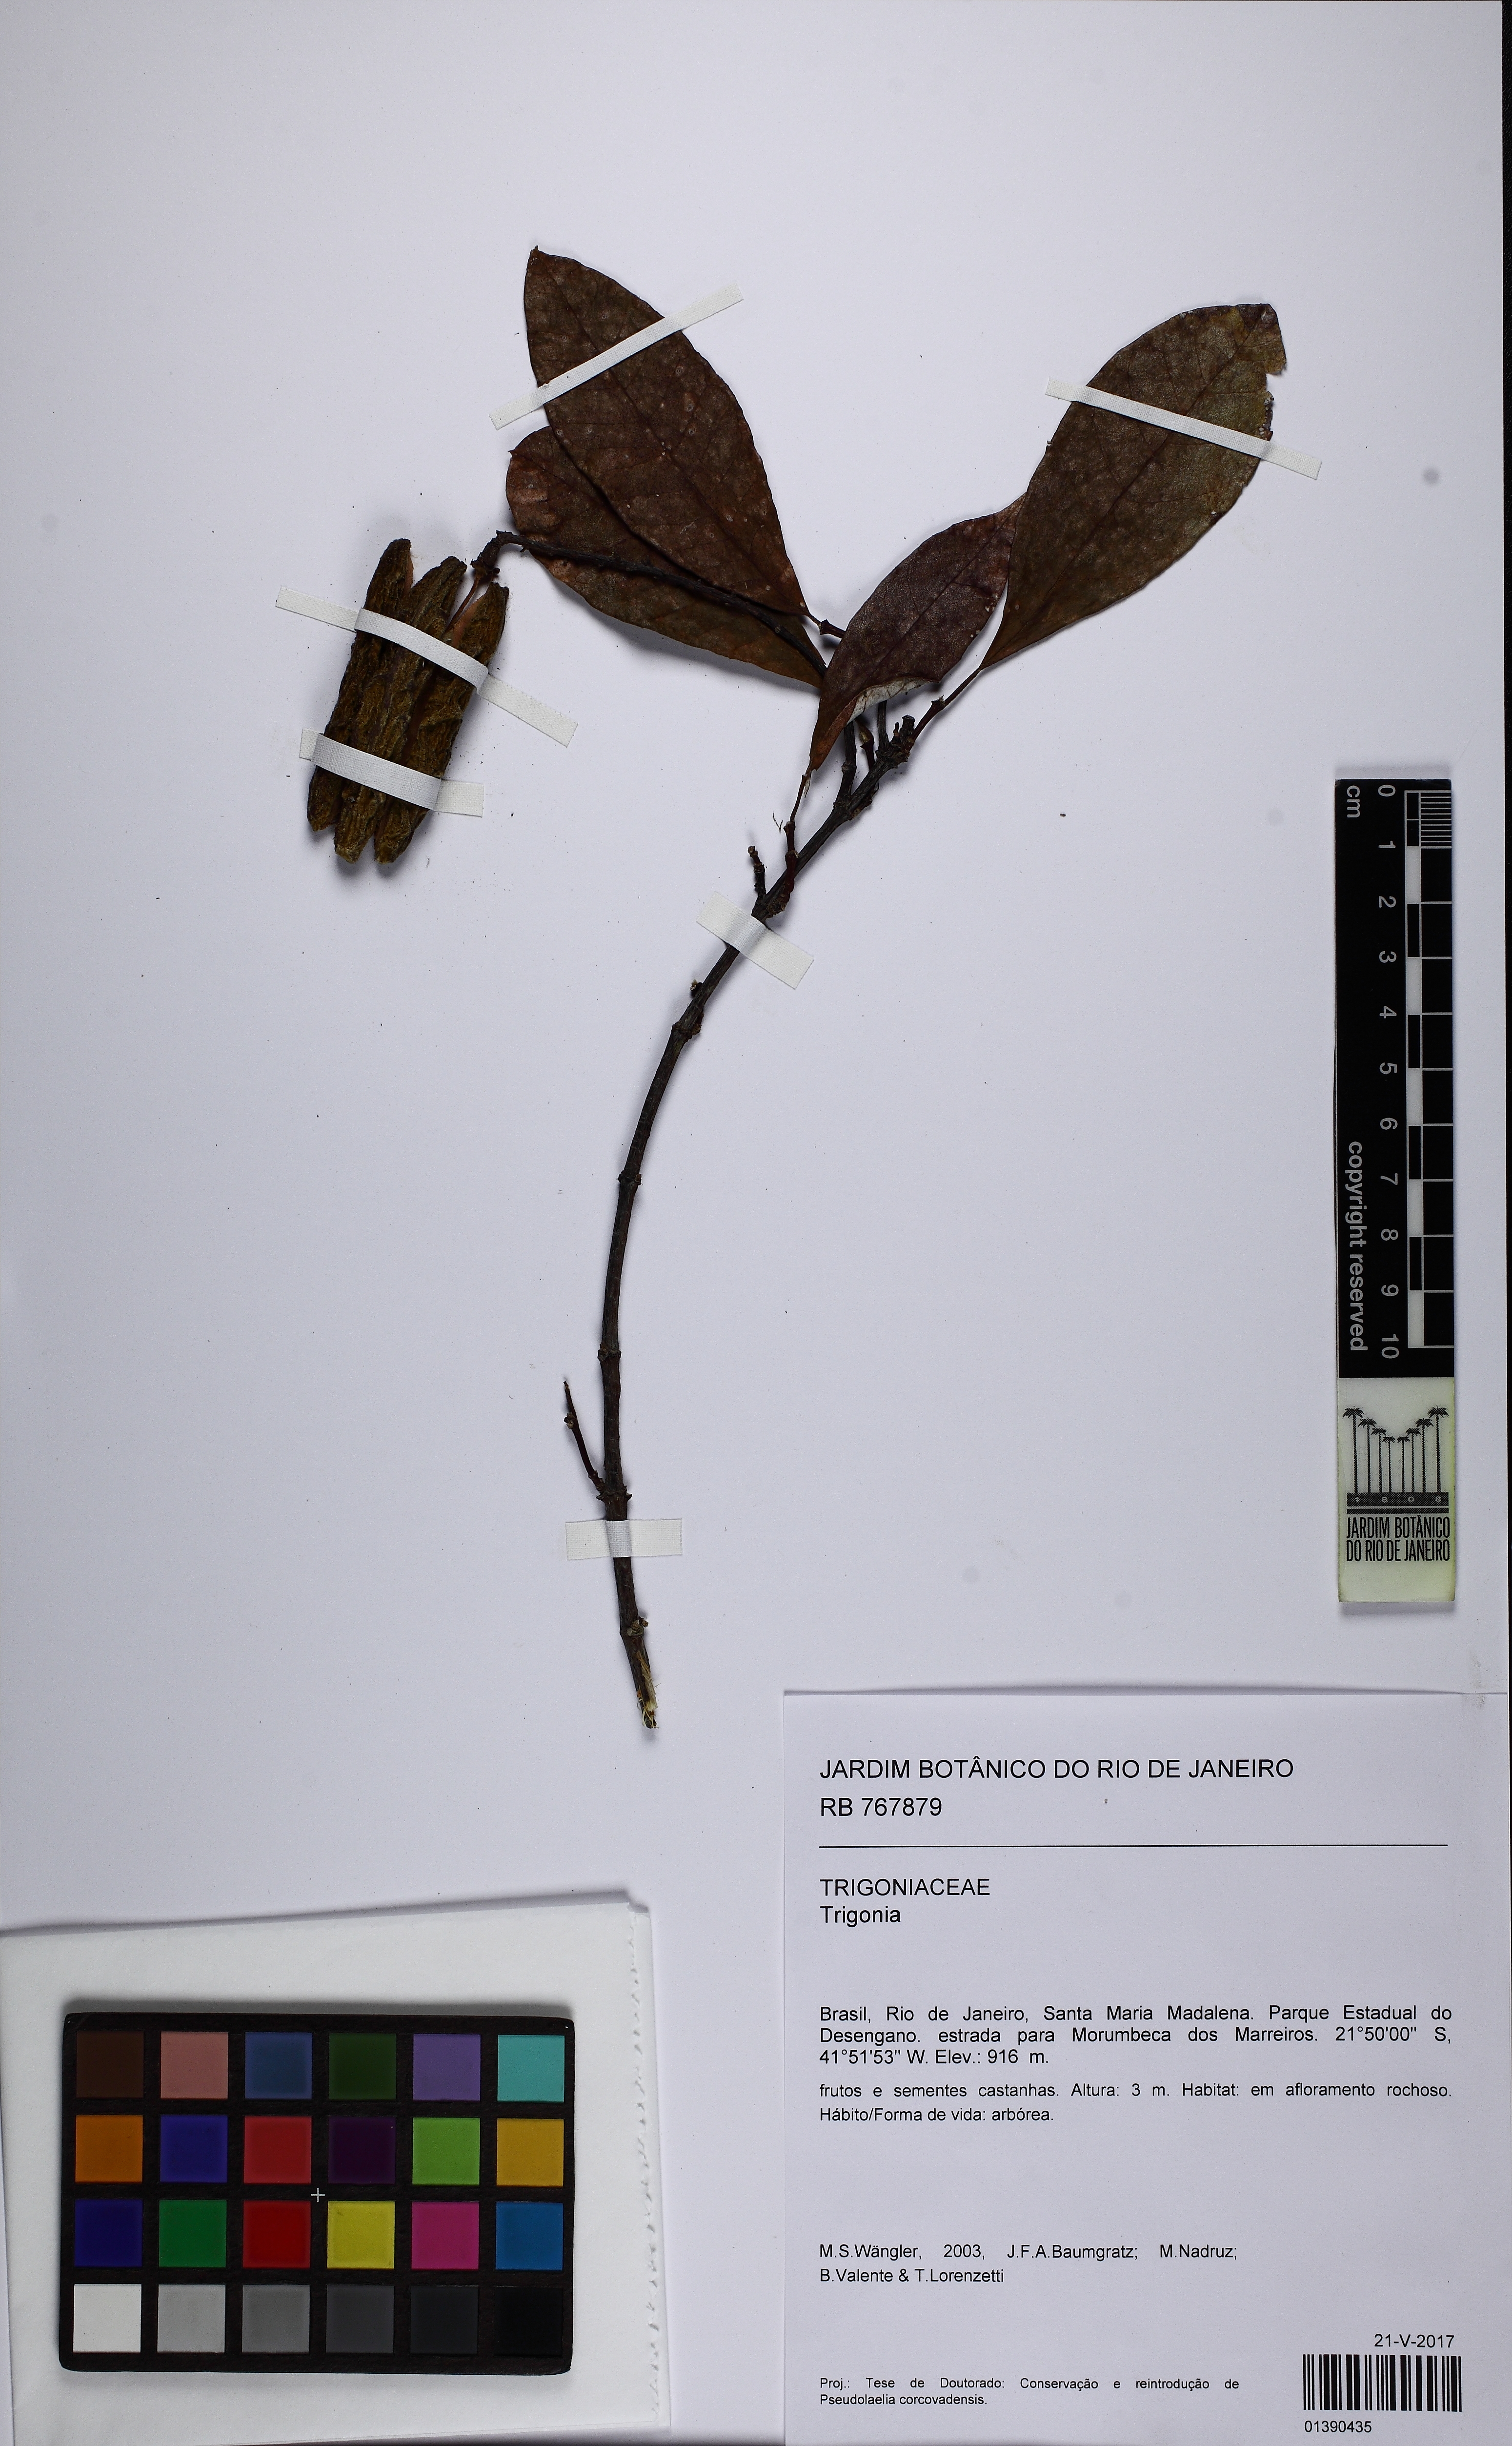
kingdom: Plantae
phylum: Tracheophyta
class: Magnoliopsida
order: Malpighiales
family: Trigoniaceae
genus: Trigonia
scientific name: Trigonia
